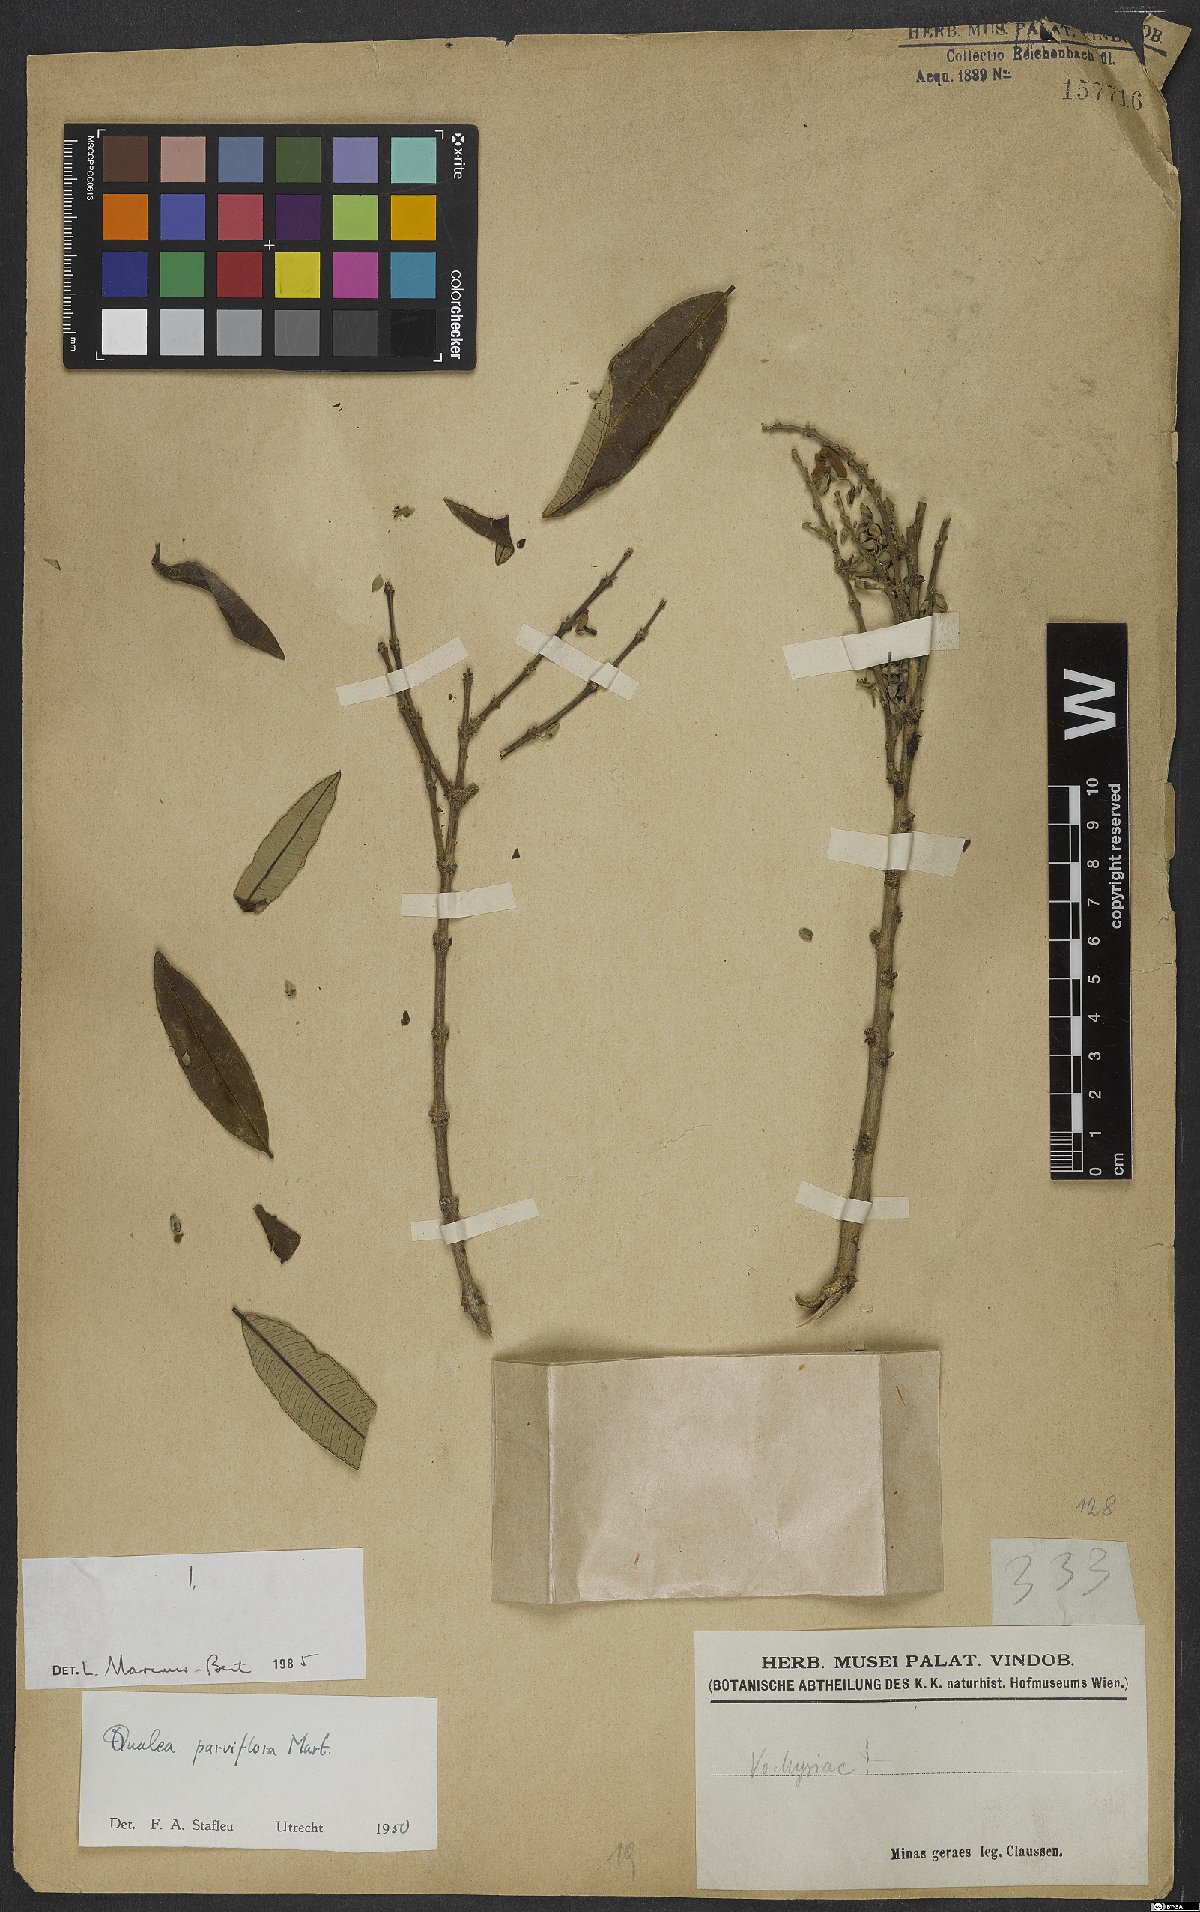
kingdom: Plantae
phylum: Tracheophyta
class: Magnoliopsida
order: Myrtales
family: Vochysiaceae
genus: Qualea
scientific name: Qualea parviflora
